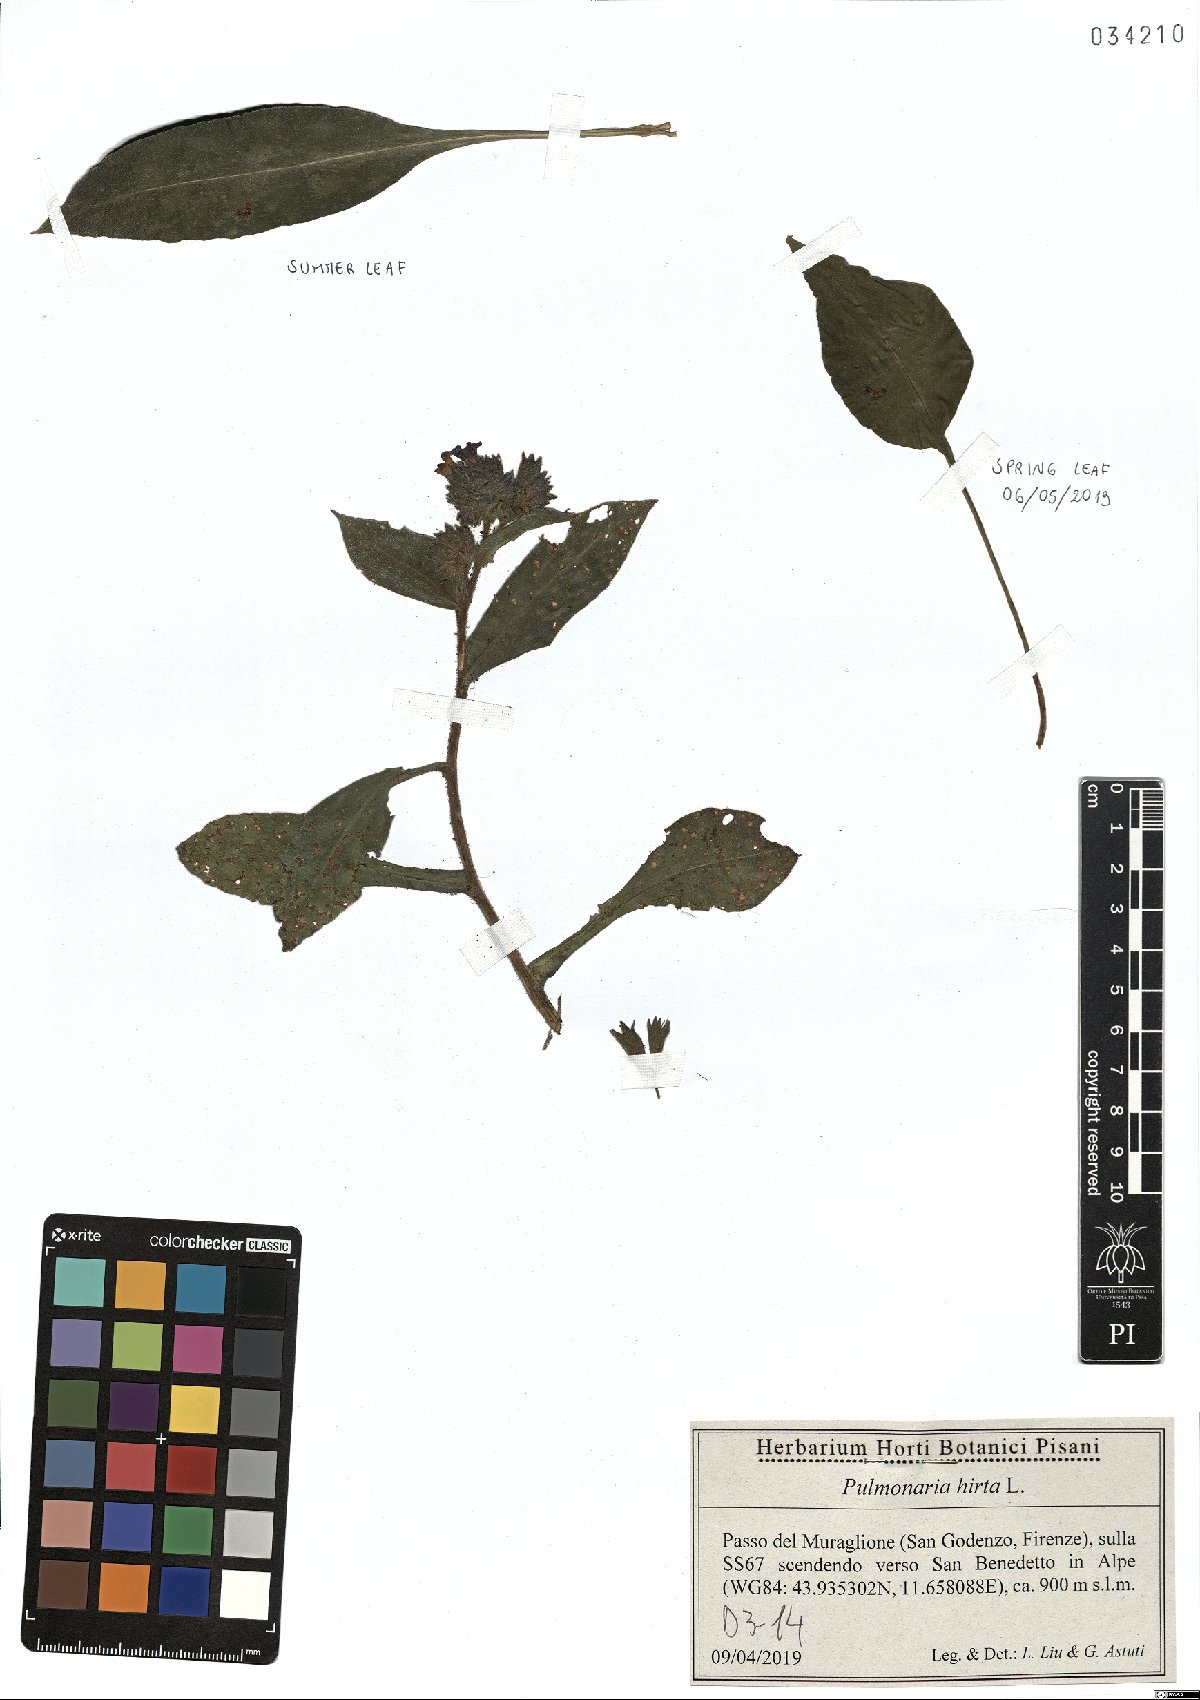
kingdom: Plantae
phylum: Tracheophyta
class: Magnoliopsida
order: Boraginales
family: Boraginaceae
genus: Pulmonaria
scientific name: Pulmonaria hirta
